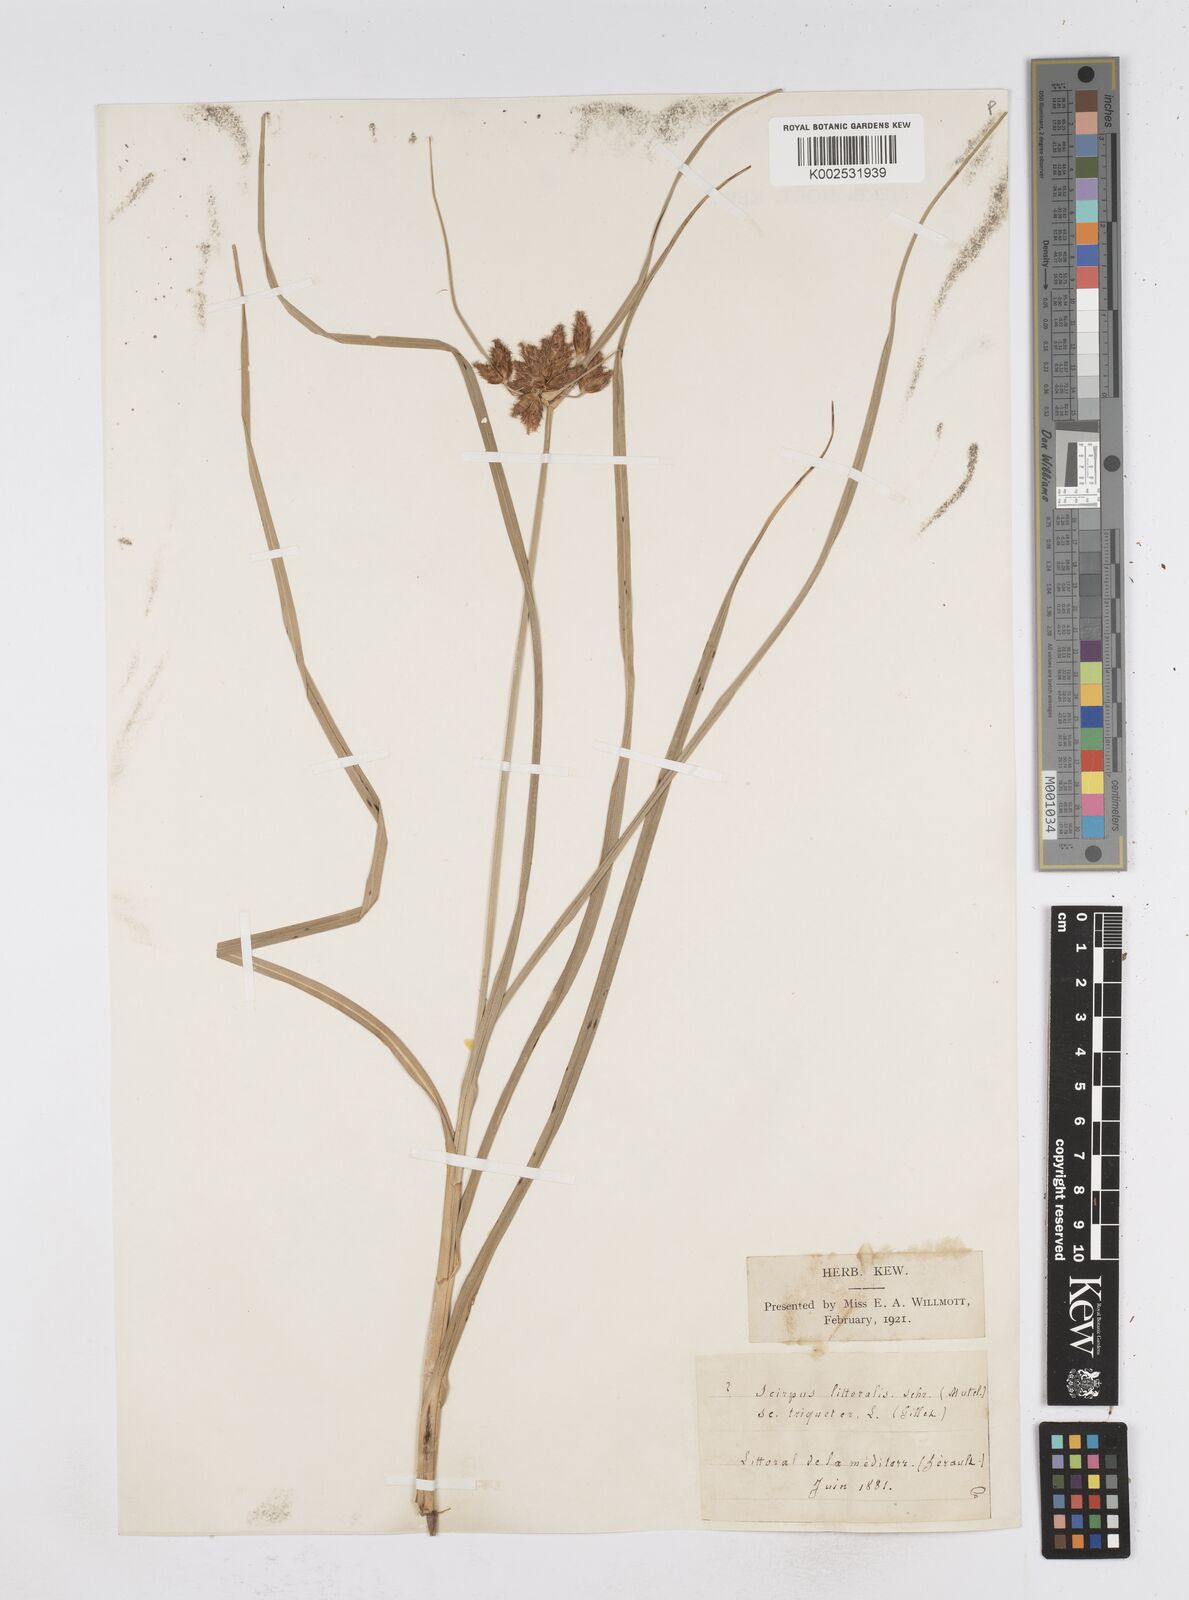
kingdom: Plantae
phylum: Tracheophyta
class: Liliopsida
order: Poales
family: Cyperaceae
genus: Bolboschoenus
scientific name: Bolboschoenus maritimus
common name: Sea club-rush
